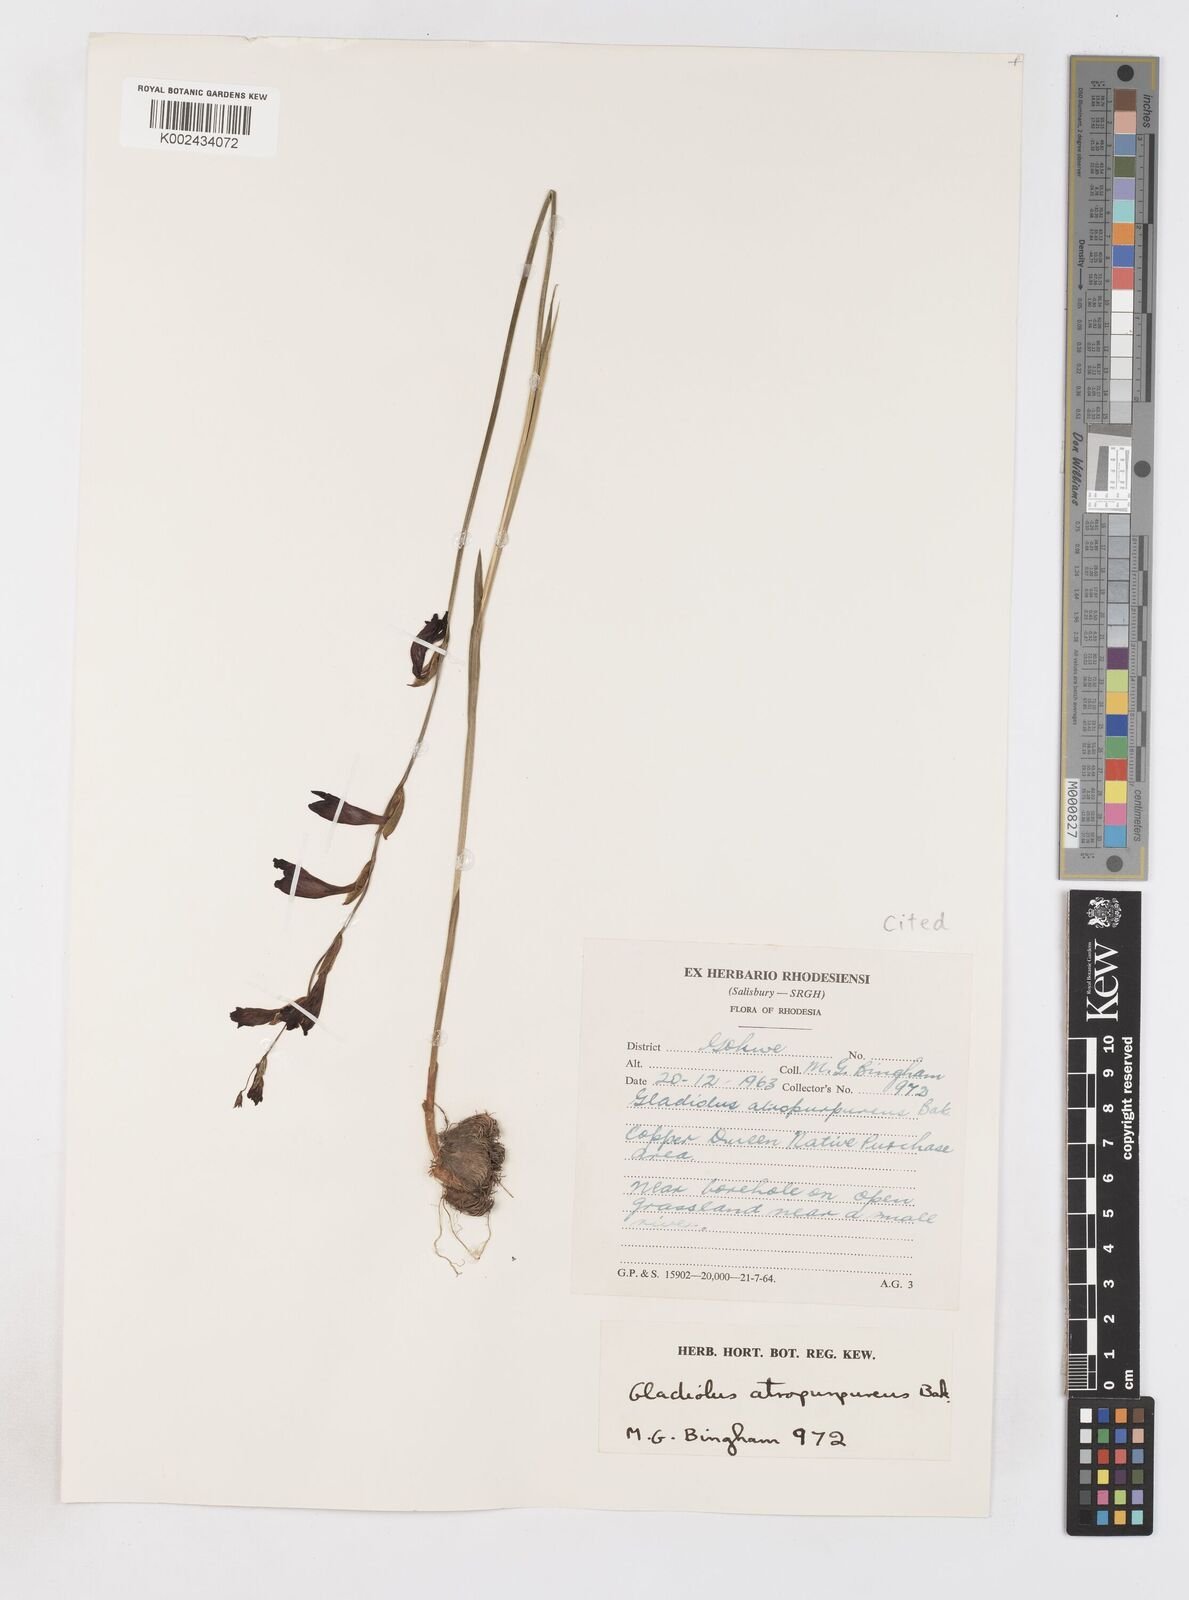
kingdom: Plantae
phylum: Tracheophyta
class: Liliopsida
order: Asparagales
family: Iridaceae
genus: Gladiolus
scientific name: Gladiolus atropurpureus
